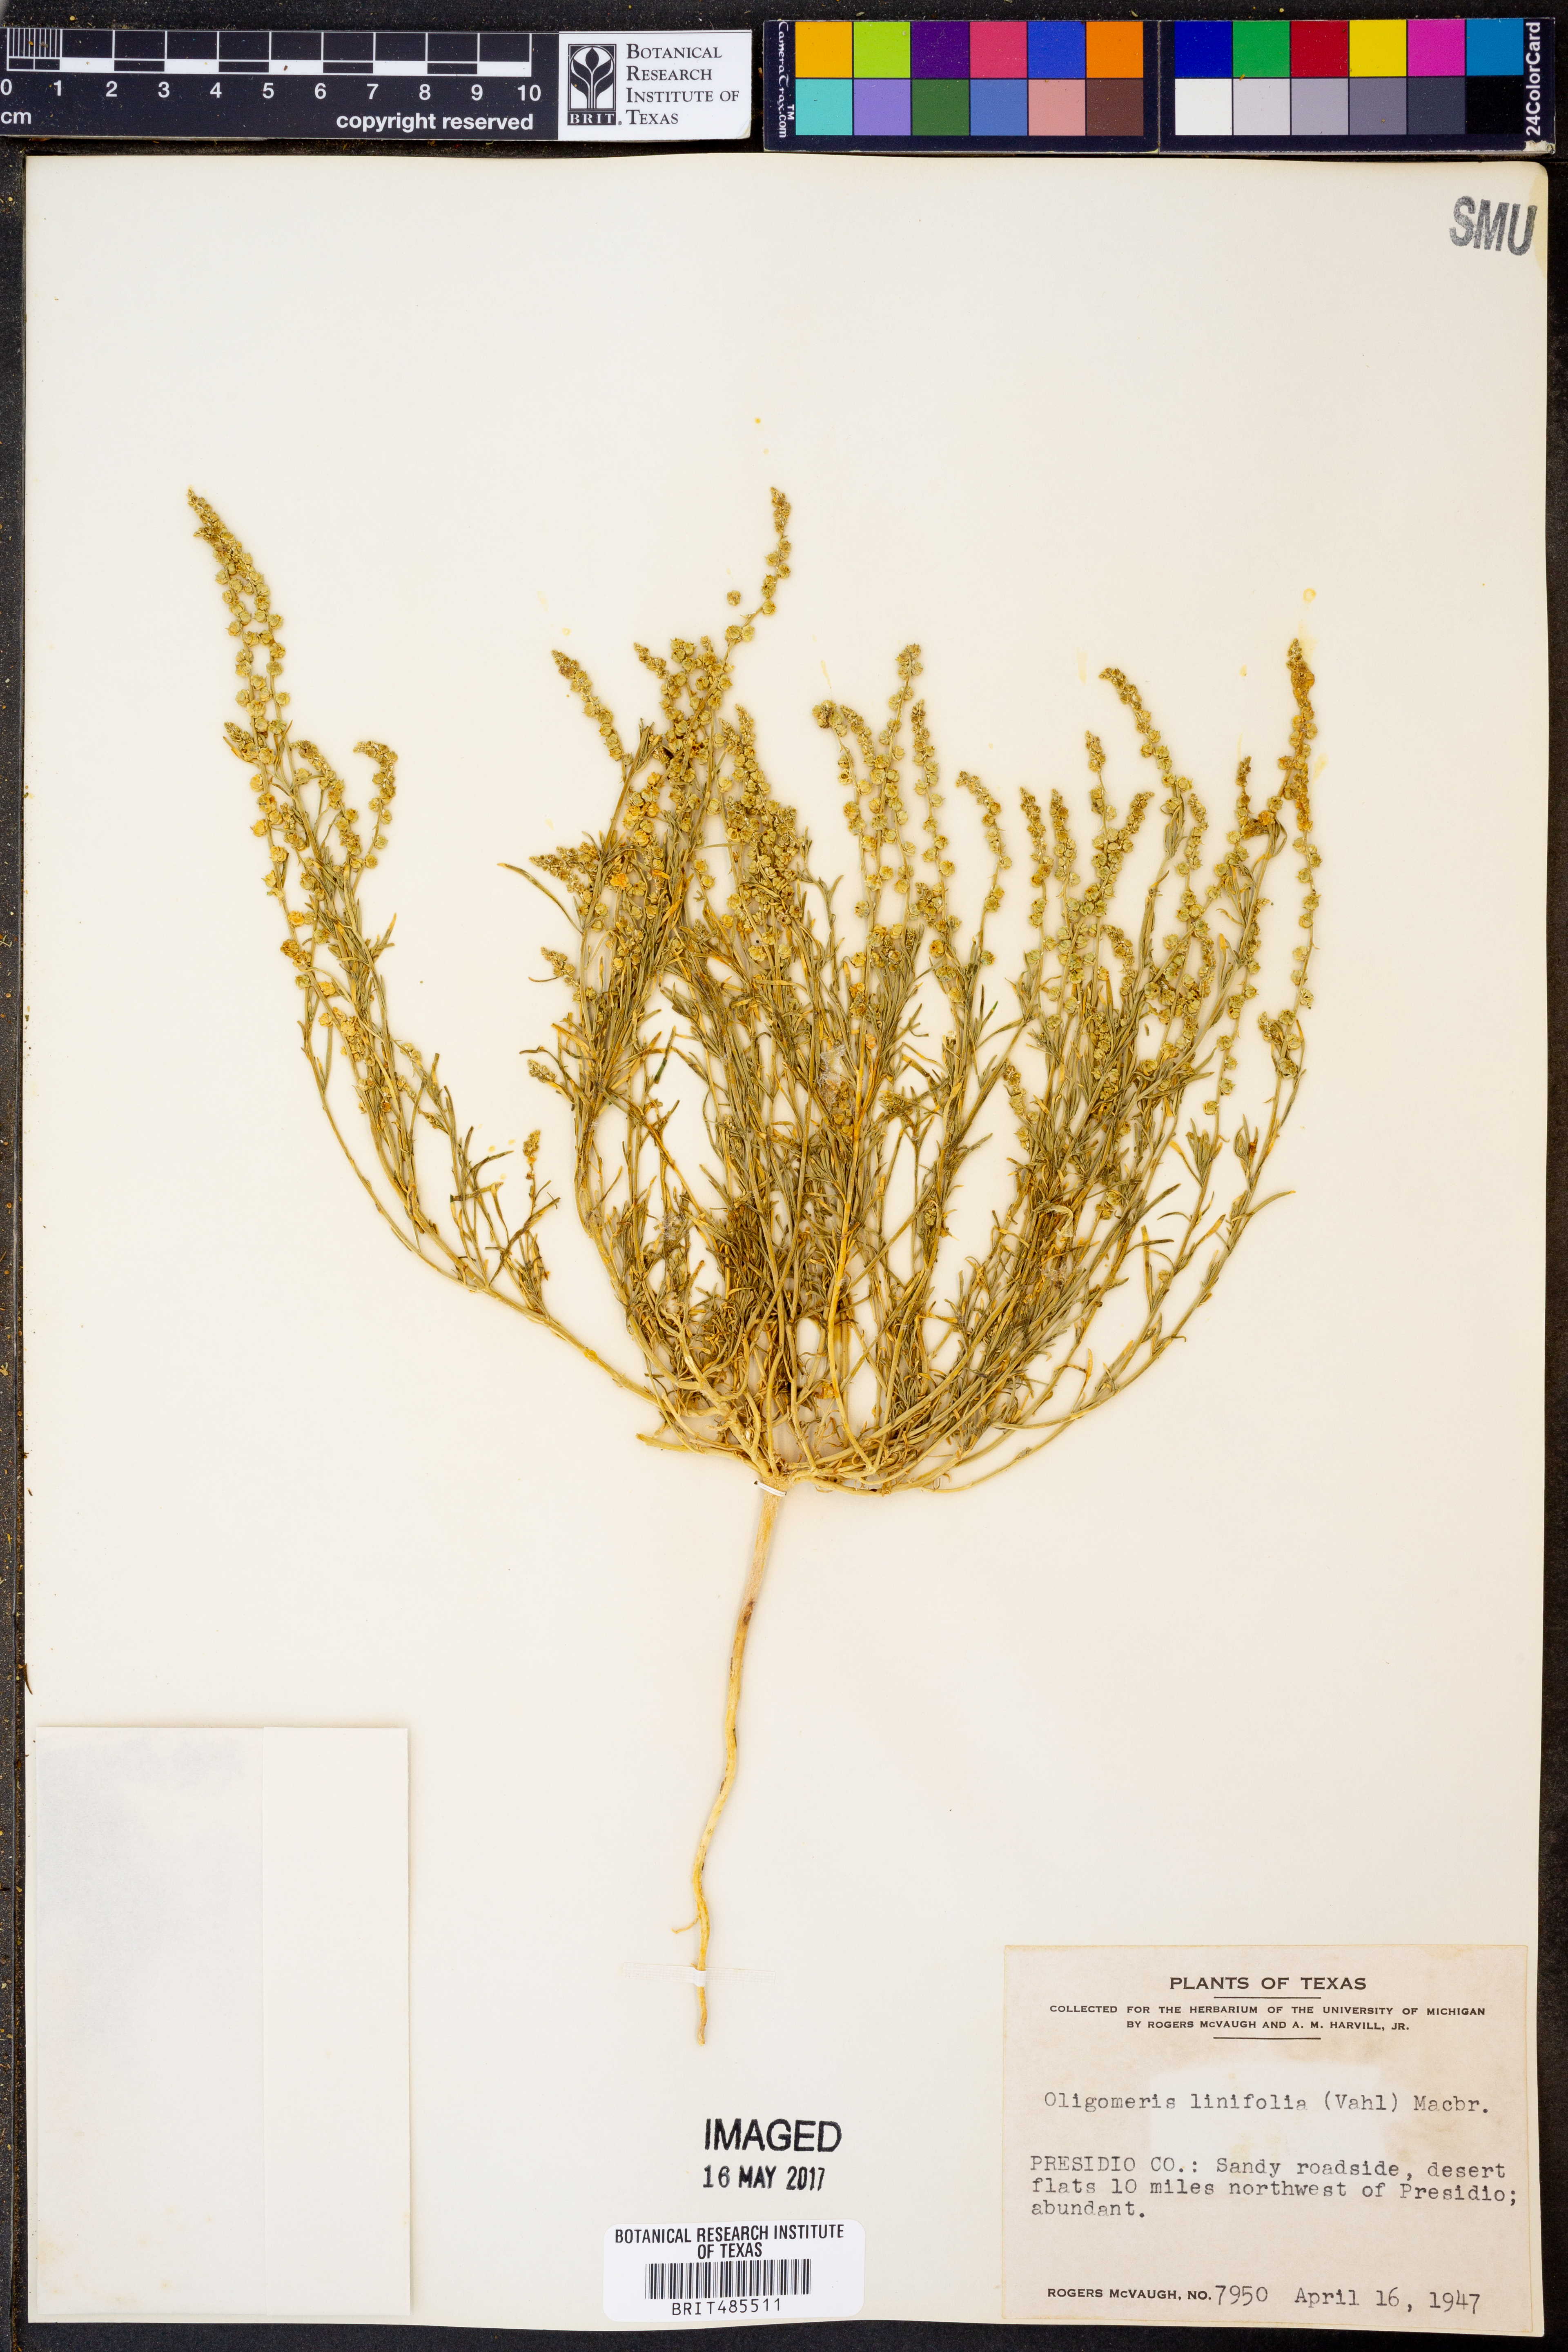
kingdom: Plantae
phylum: Tracheophyta
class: Magnoliopsida
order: Brassicales
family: Resedaceae
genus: Oligomeris
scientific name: Oligomeris linifolia
